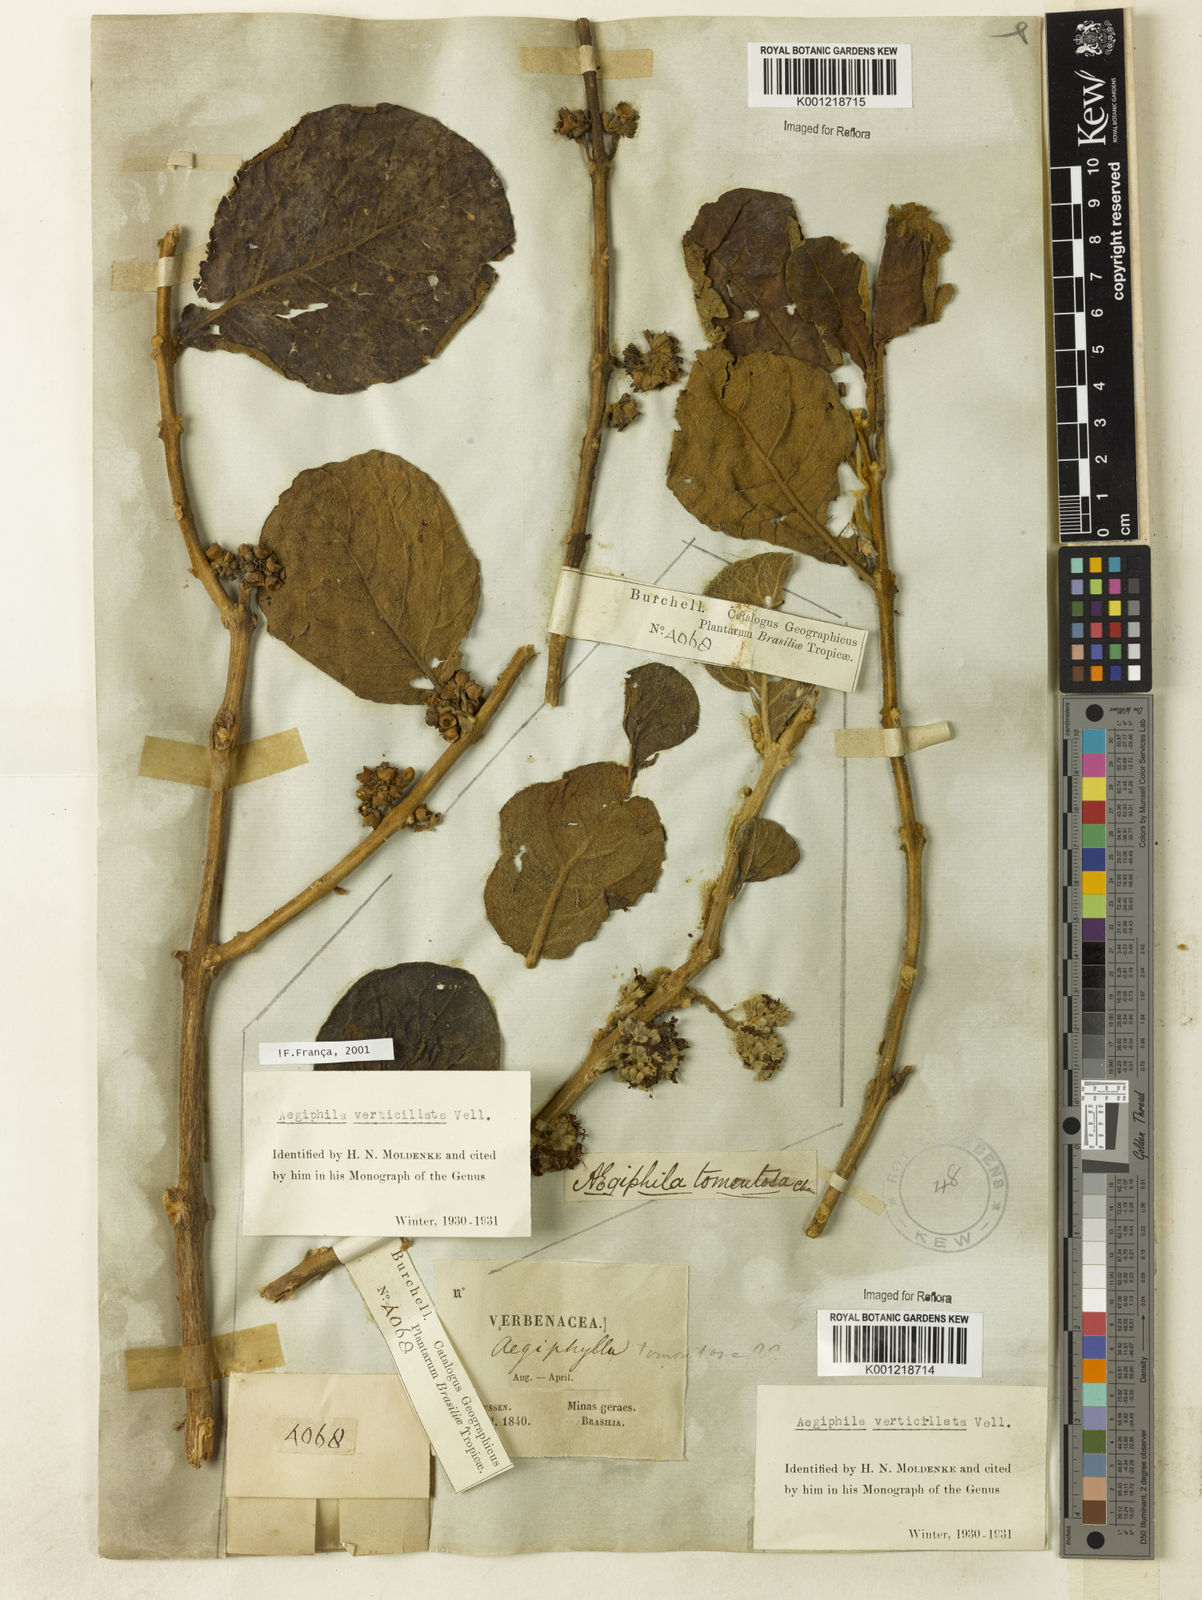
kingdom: Plantae
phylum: Tracheophyta
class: Magnoliopsida
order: Lamiales
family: Lamiaceae
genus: Aegiphila
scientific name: Aegiphila verticillata
